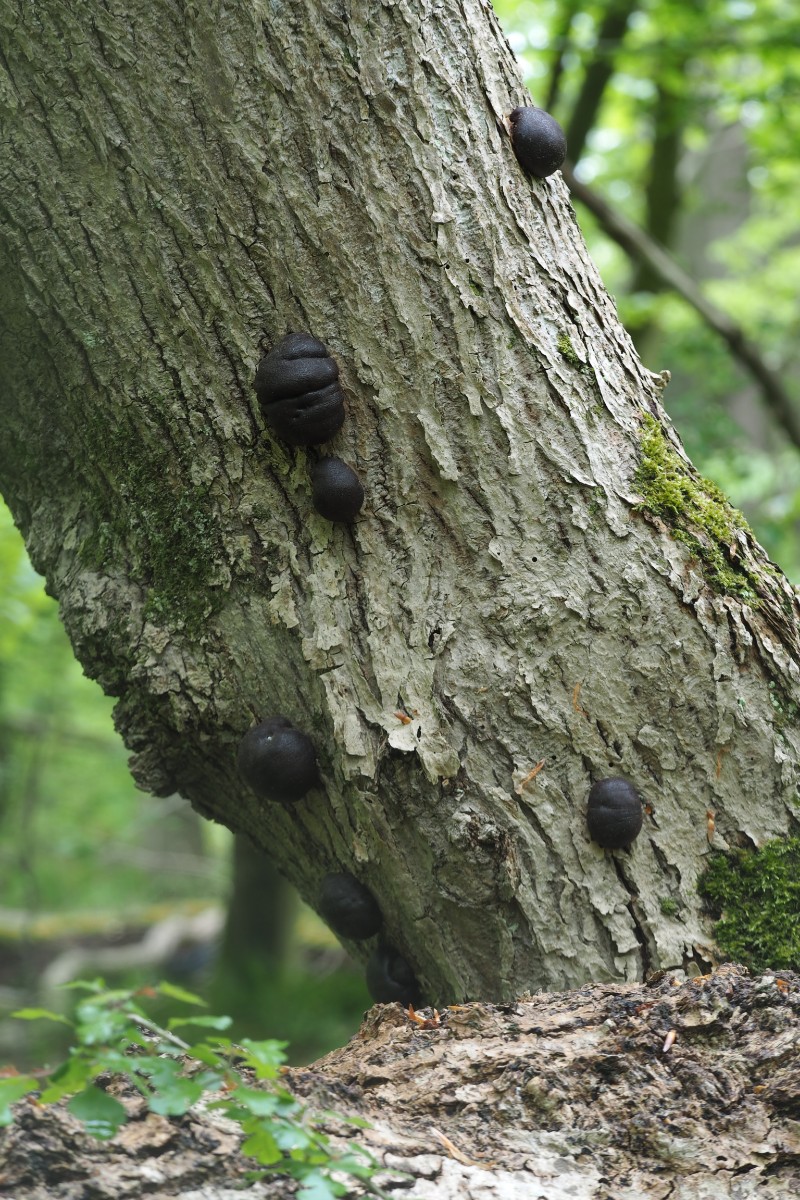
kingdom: Fungi
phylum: Ascomycota
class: Sordariomycetes
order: Xylariales
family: Hypoxylaceae
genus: Daldinia
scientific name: Daldinia concentrica
